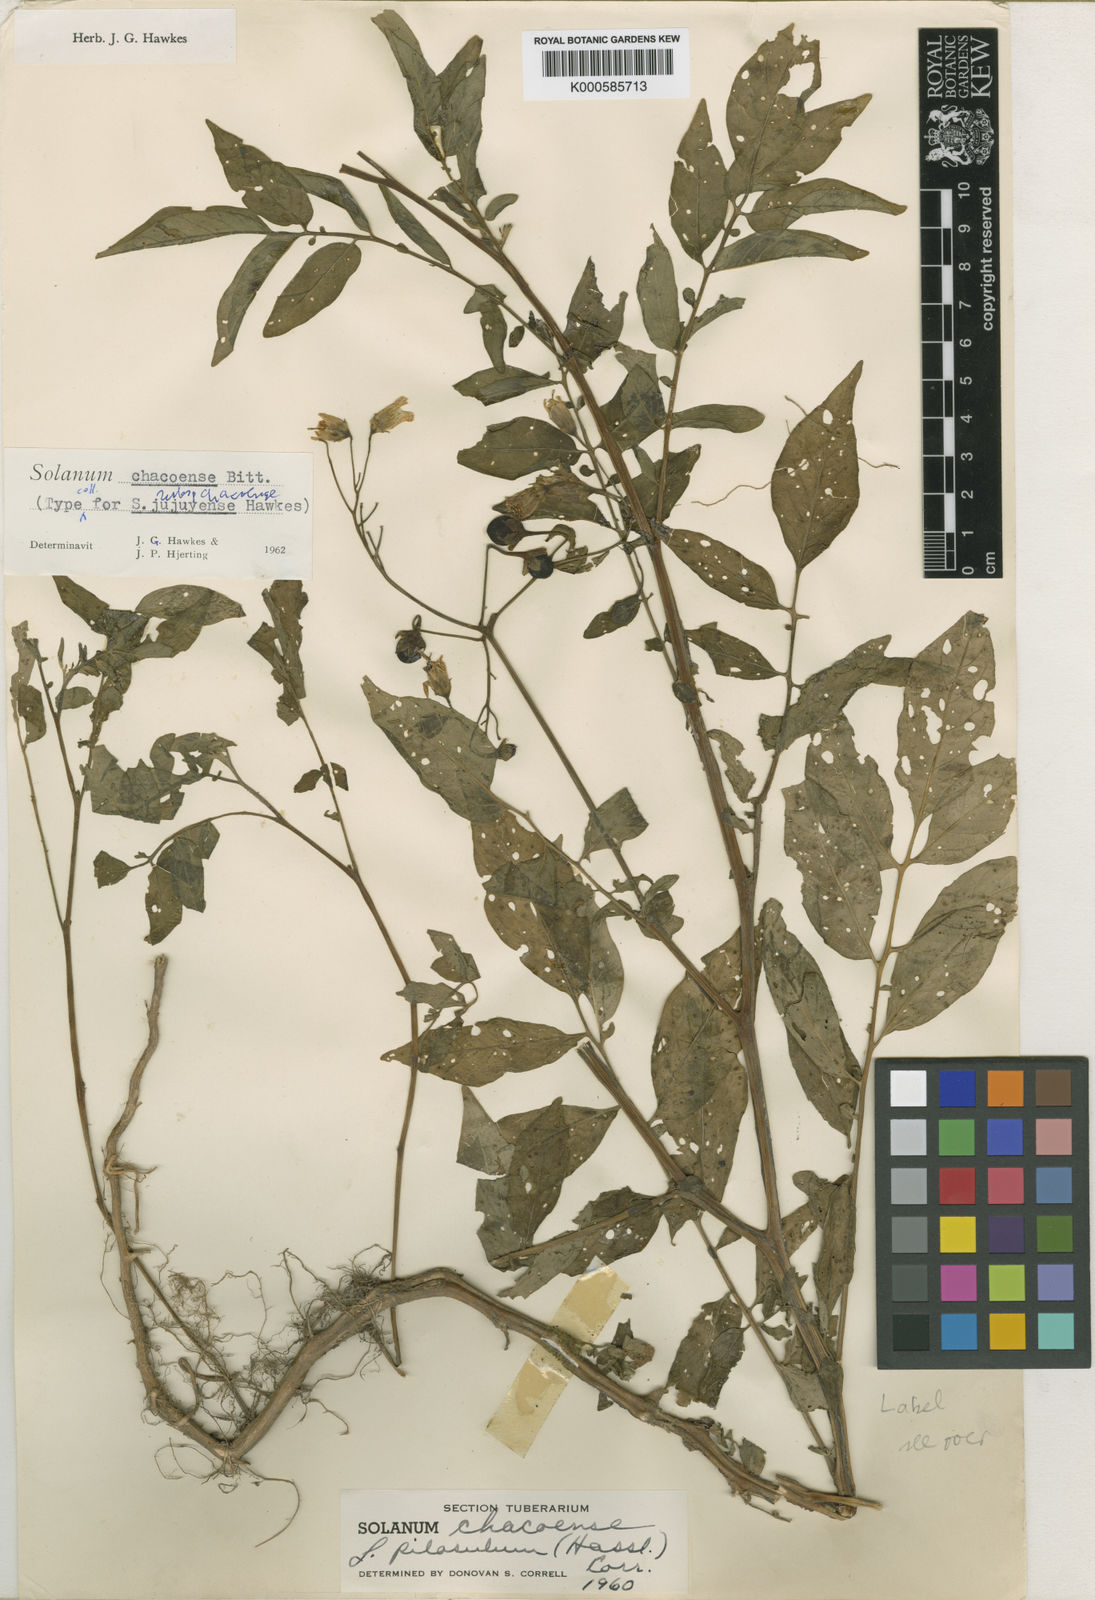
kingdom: Plantae
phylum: Tracheophyta
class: Magnoliopsida
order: Solanales
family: Solanaceae
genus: Solanum
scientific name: Solanum
